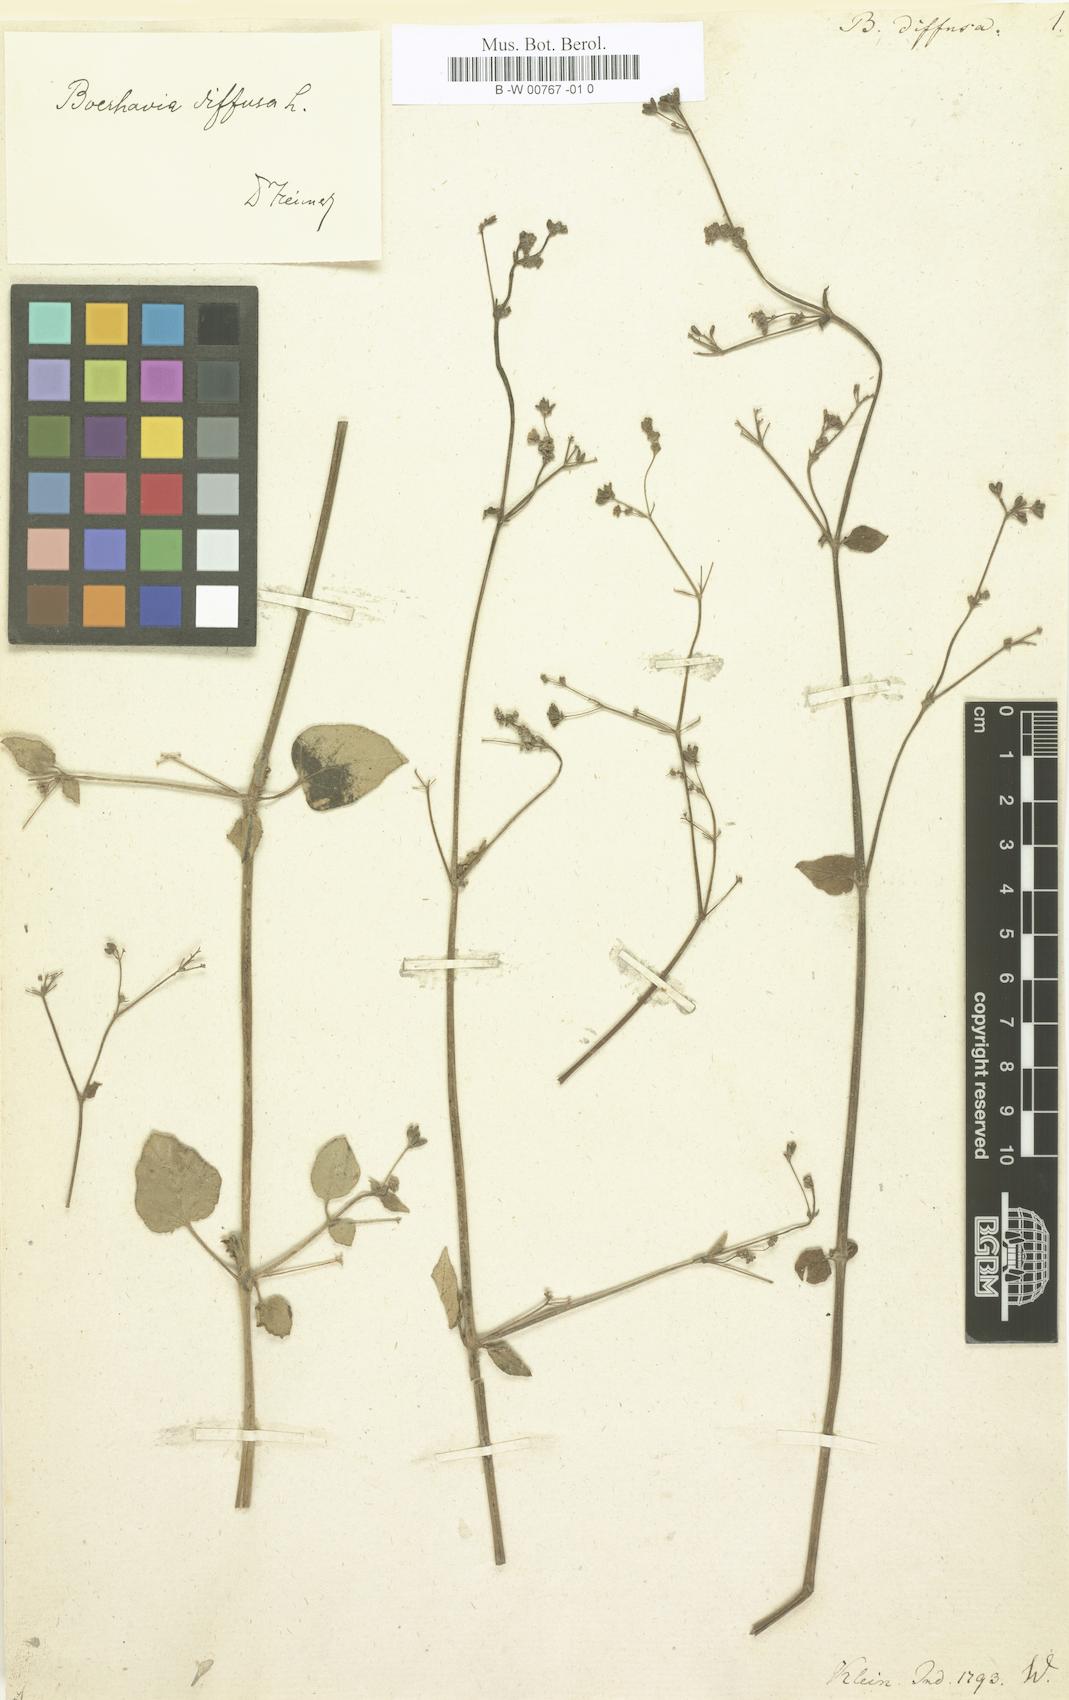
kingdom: Plantae
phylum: Tracheophyta
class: Magnoliopsida
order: Caryophyllales
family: Nyctaginaceae
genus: Boerhavia
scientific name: Boerhavia diffusa
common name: Red spiderling
